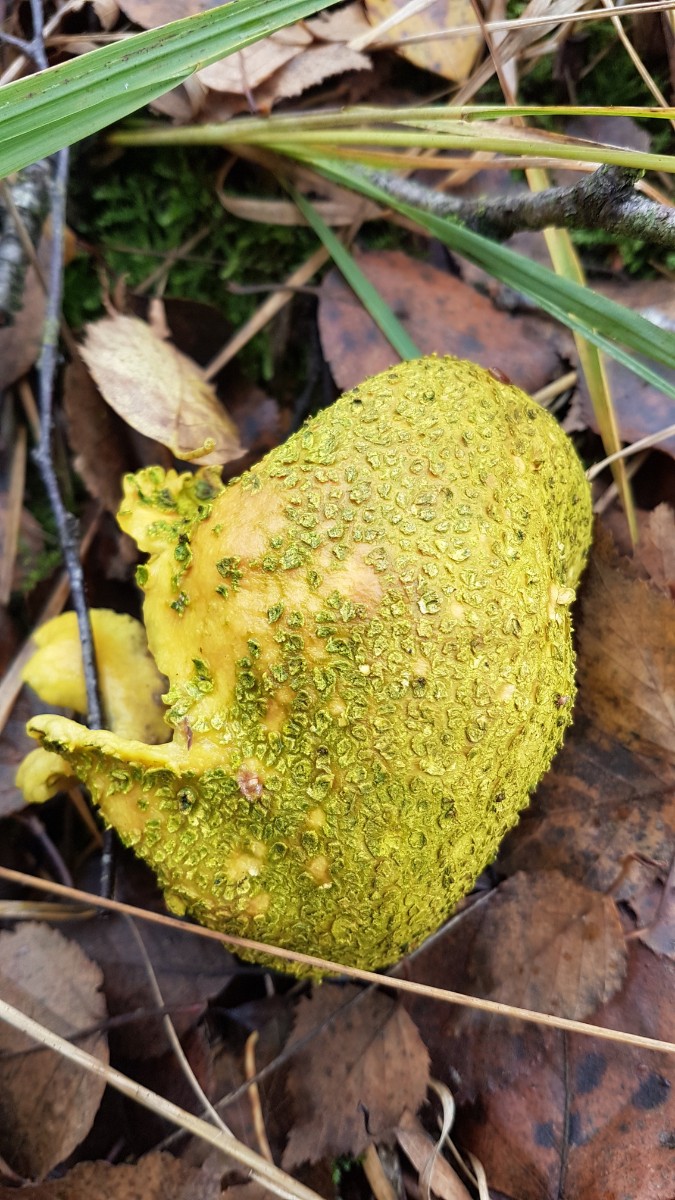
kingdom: Fungi
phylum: Basidiomycota
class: Agaricomycetes
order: Boletales
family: Sclerodermataceae
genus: Scleroderma
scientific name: Scleroderma citrinum
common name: almindelig bruskbold
